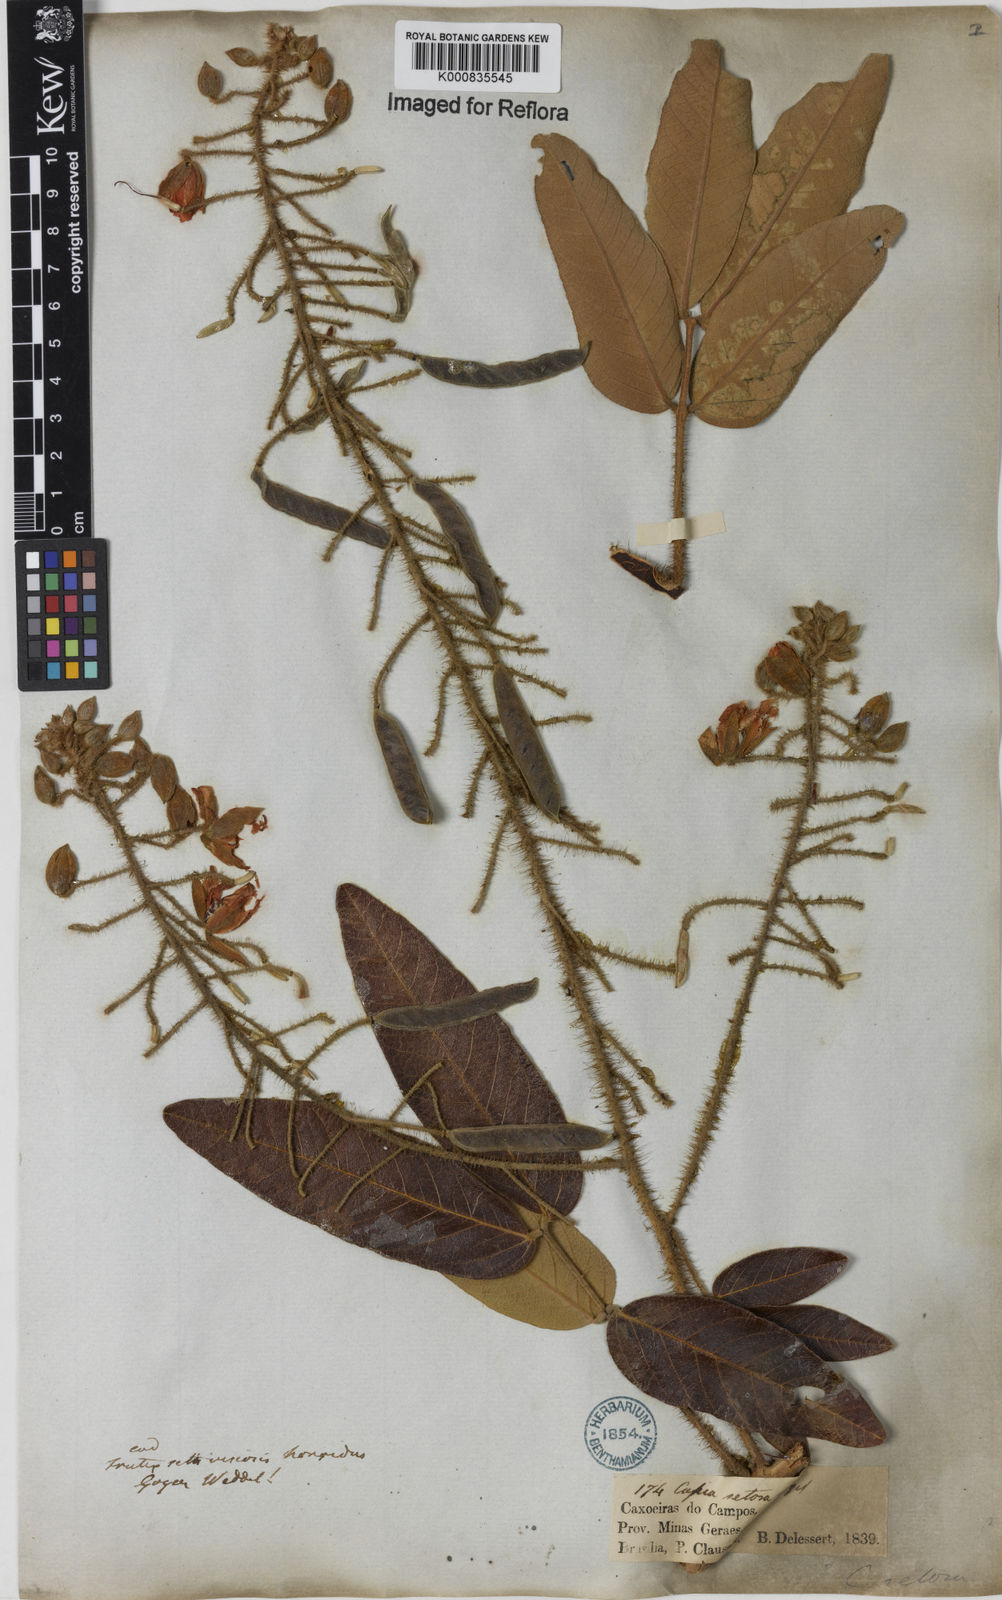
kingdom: Plantae
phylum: Tracheophyta
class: Magnoliopsida
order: Fabales
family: Fabaceae
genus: Chamaecrista
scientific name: Chamaecrista setosa
